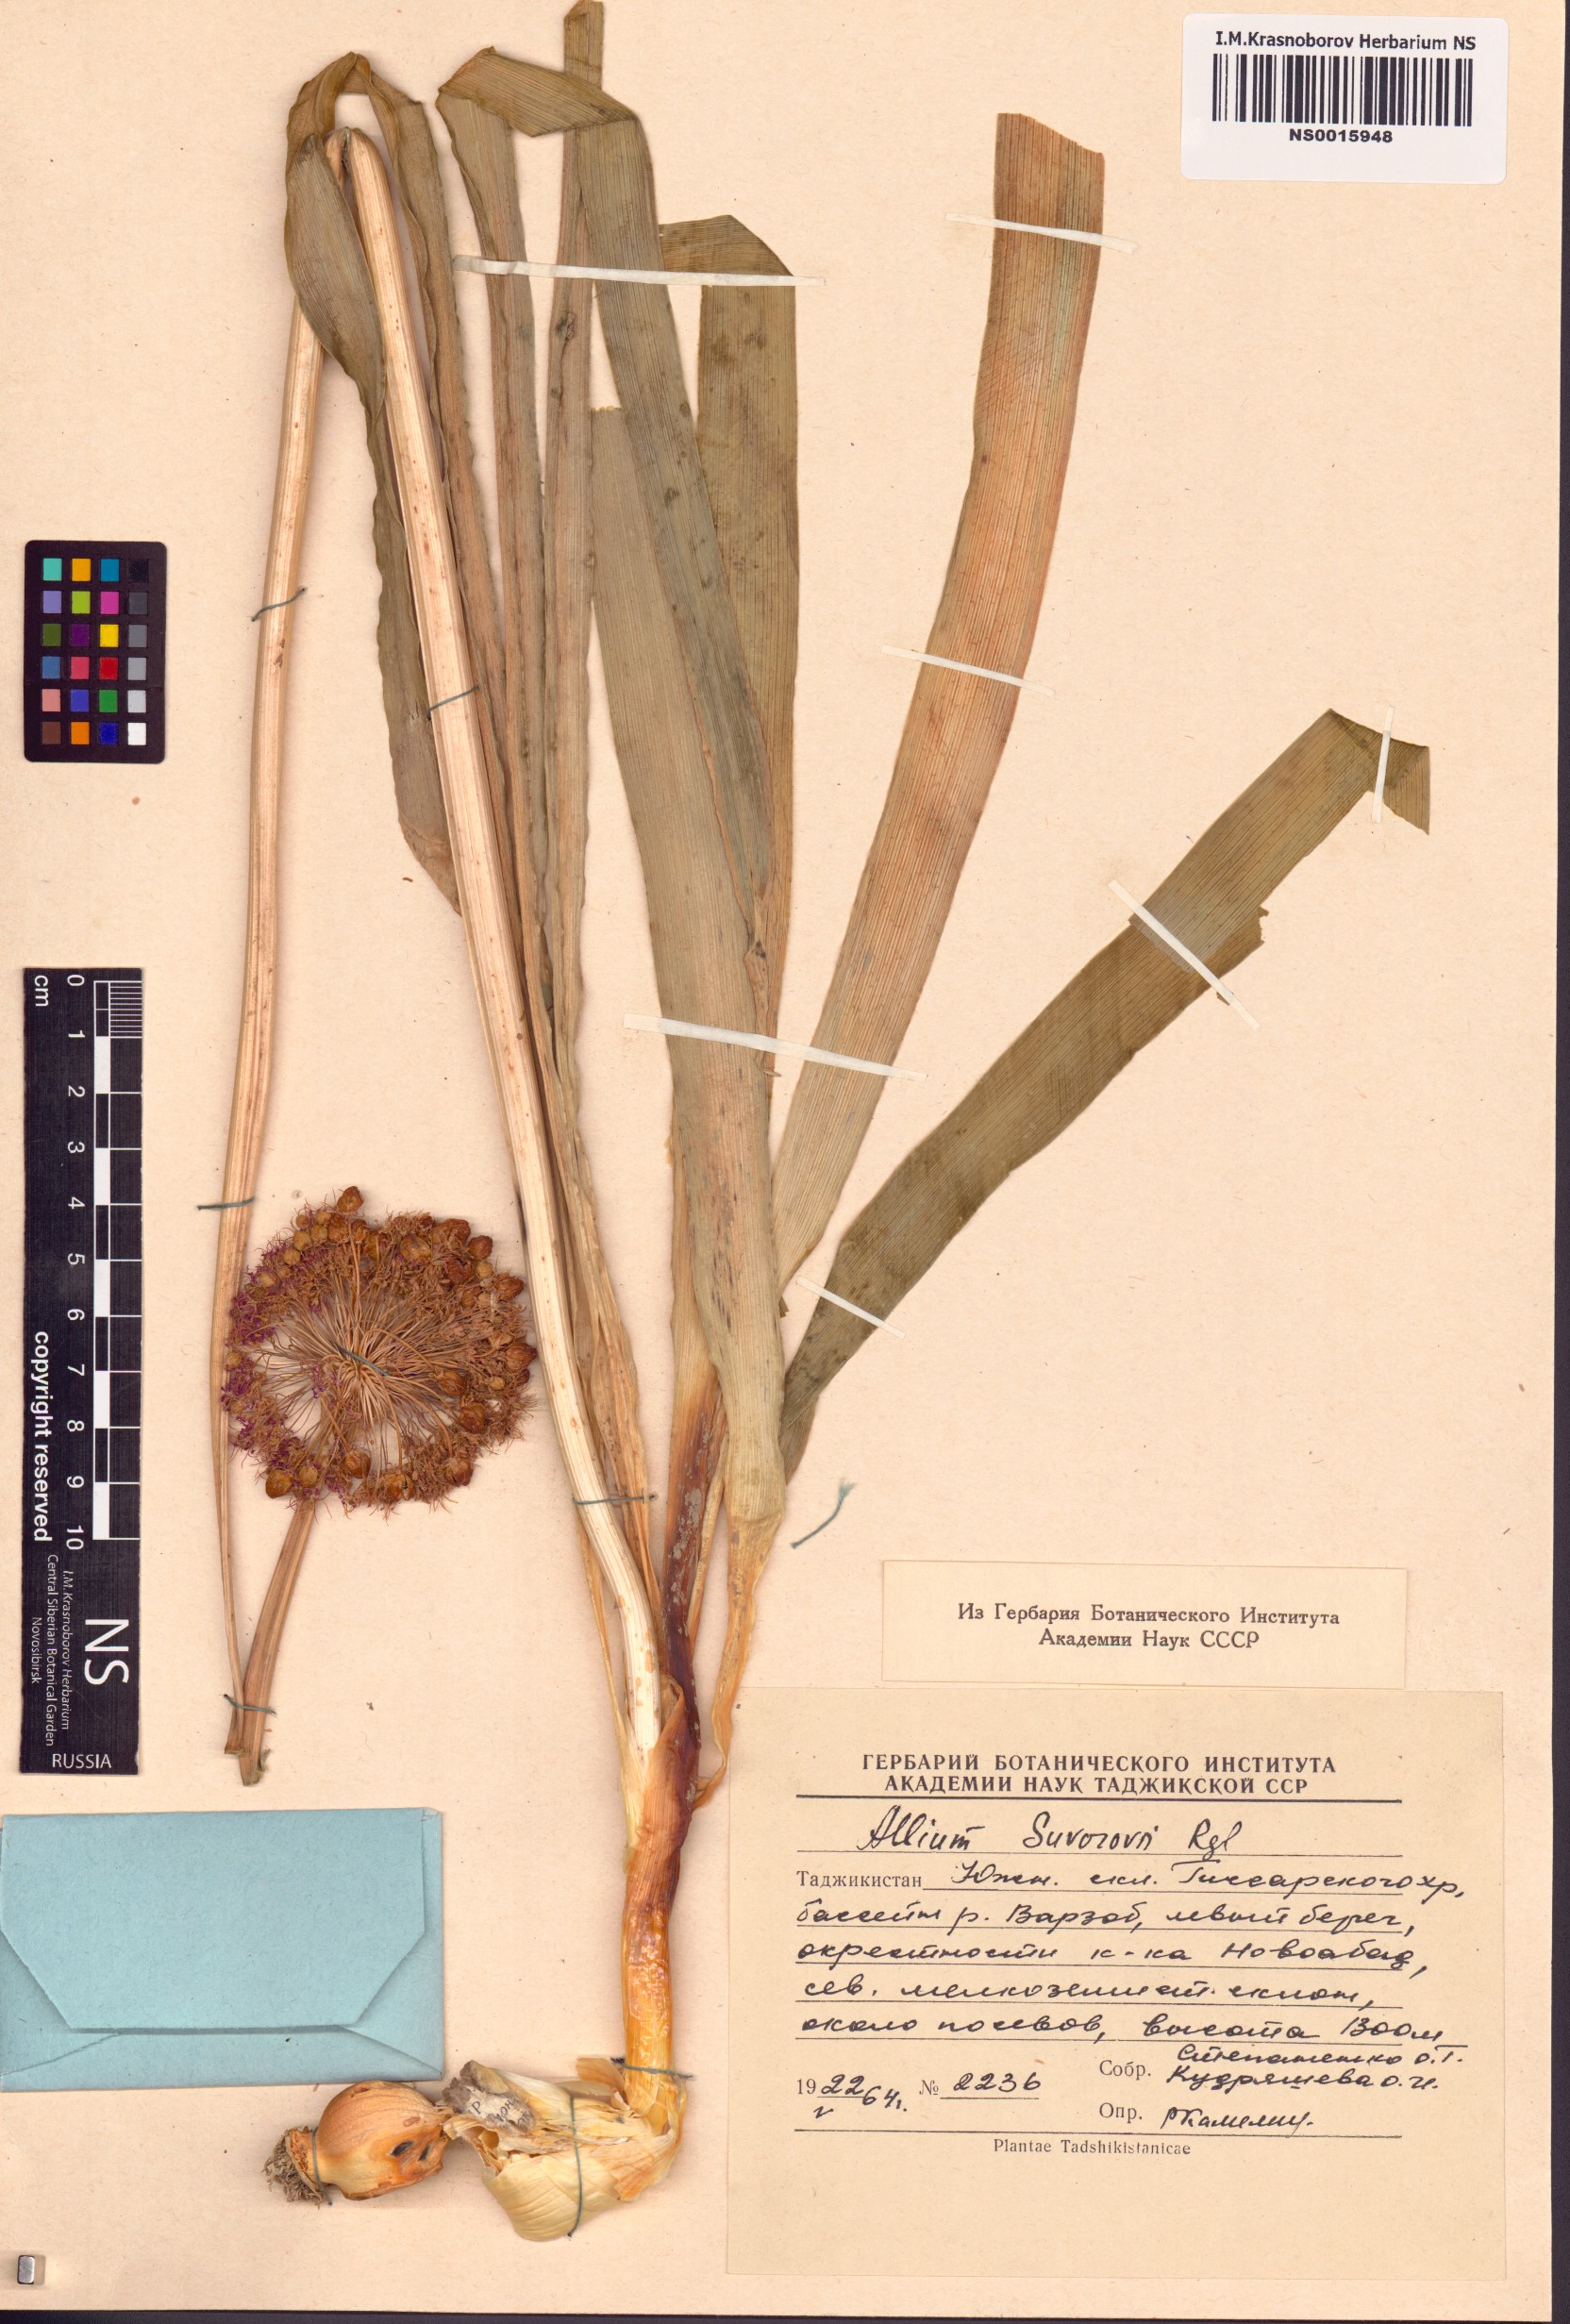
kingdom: Plantae
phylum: Tracheophyta
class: Liliopsida
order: Asparagales
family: Amaryllidaceae
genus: Allium
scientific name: Allium suworowii
